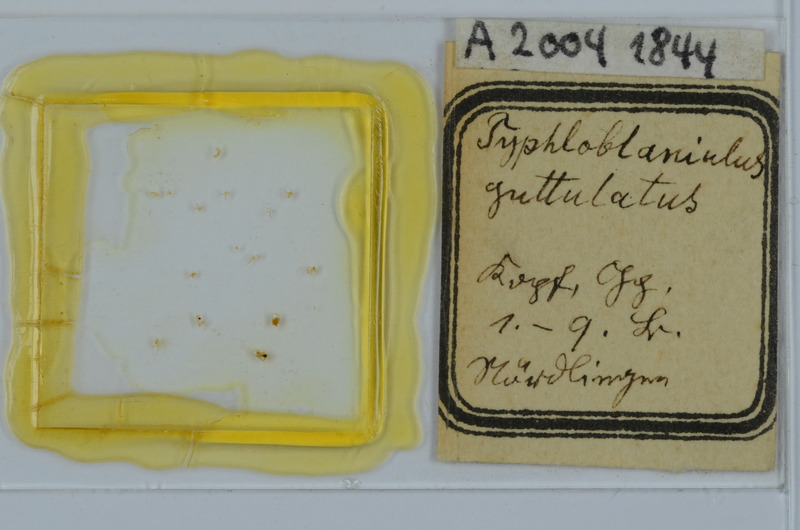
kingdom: Animalia
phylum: Arthropoda
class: Diplopoda
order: Julida
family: Blaniulidae
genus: Blaniulus
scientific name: Blaniulus guttulatus
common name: Spotted snake millipede
